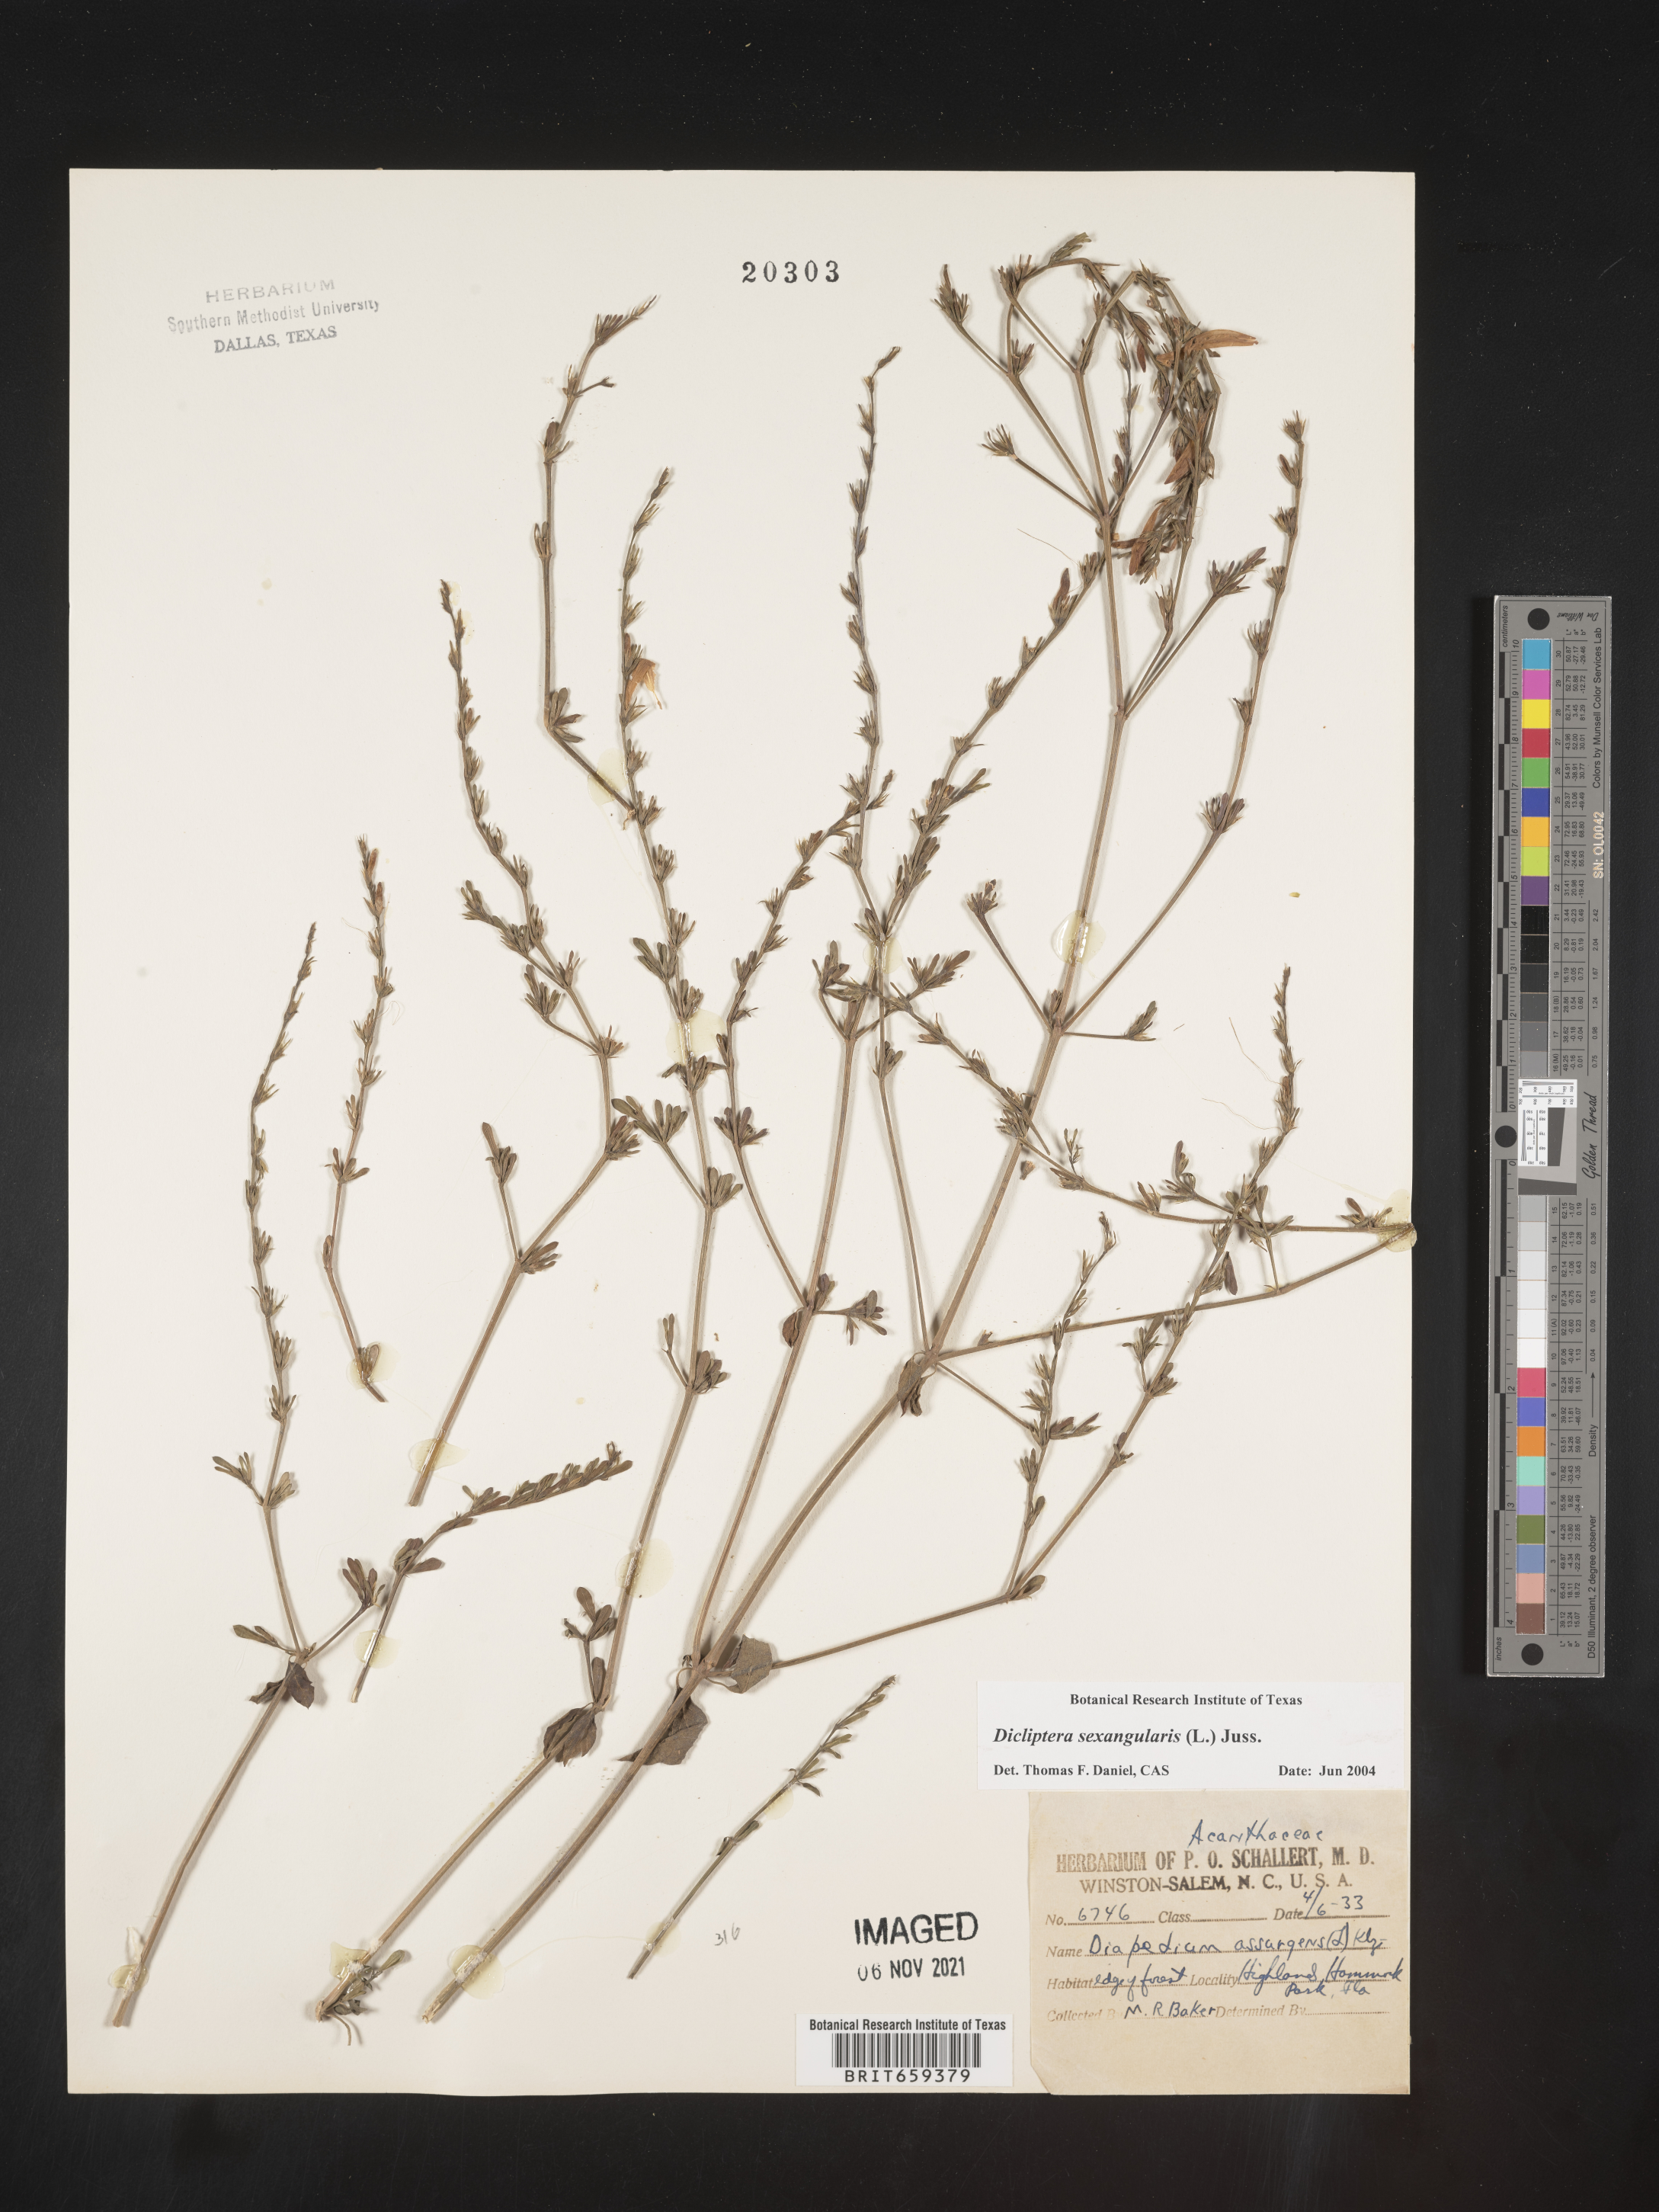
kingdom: Plantae
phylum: Tracheophyta
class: Magnoliopsida
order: Lamiales
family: Acanthaceae
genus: Dicliptera
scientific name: Dicliptera sexangularis
